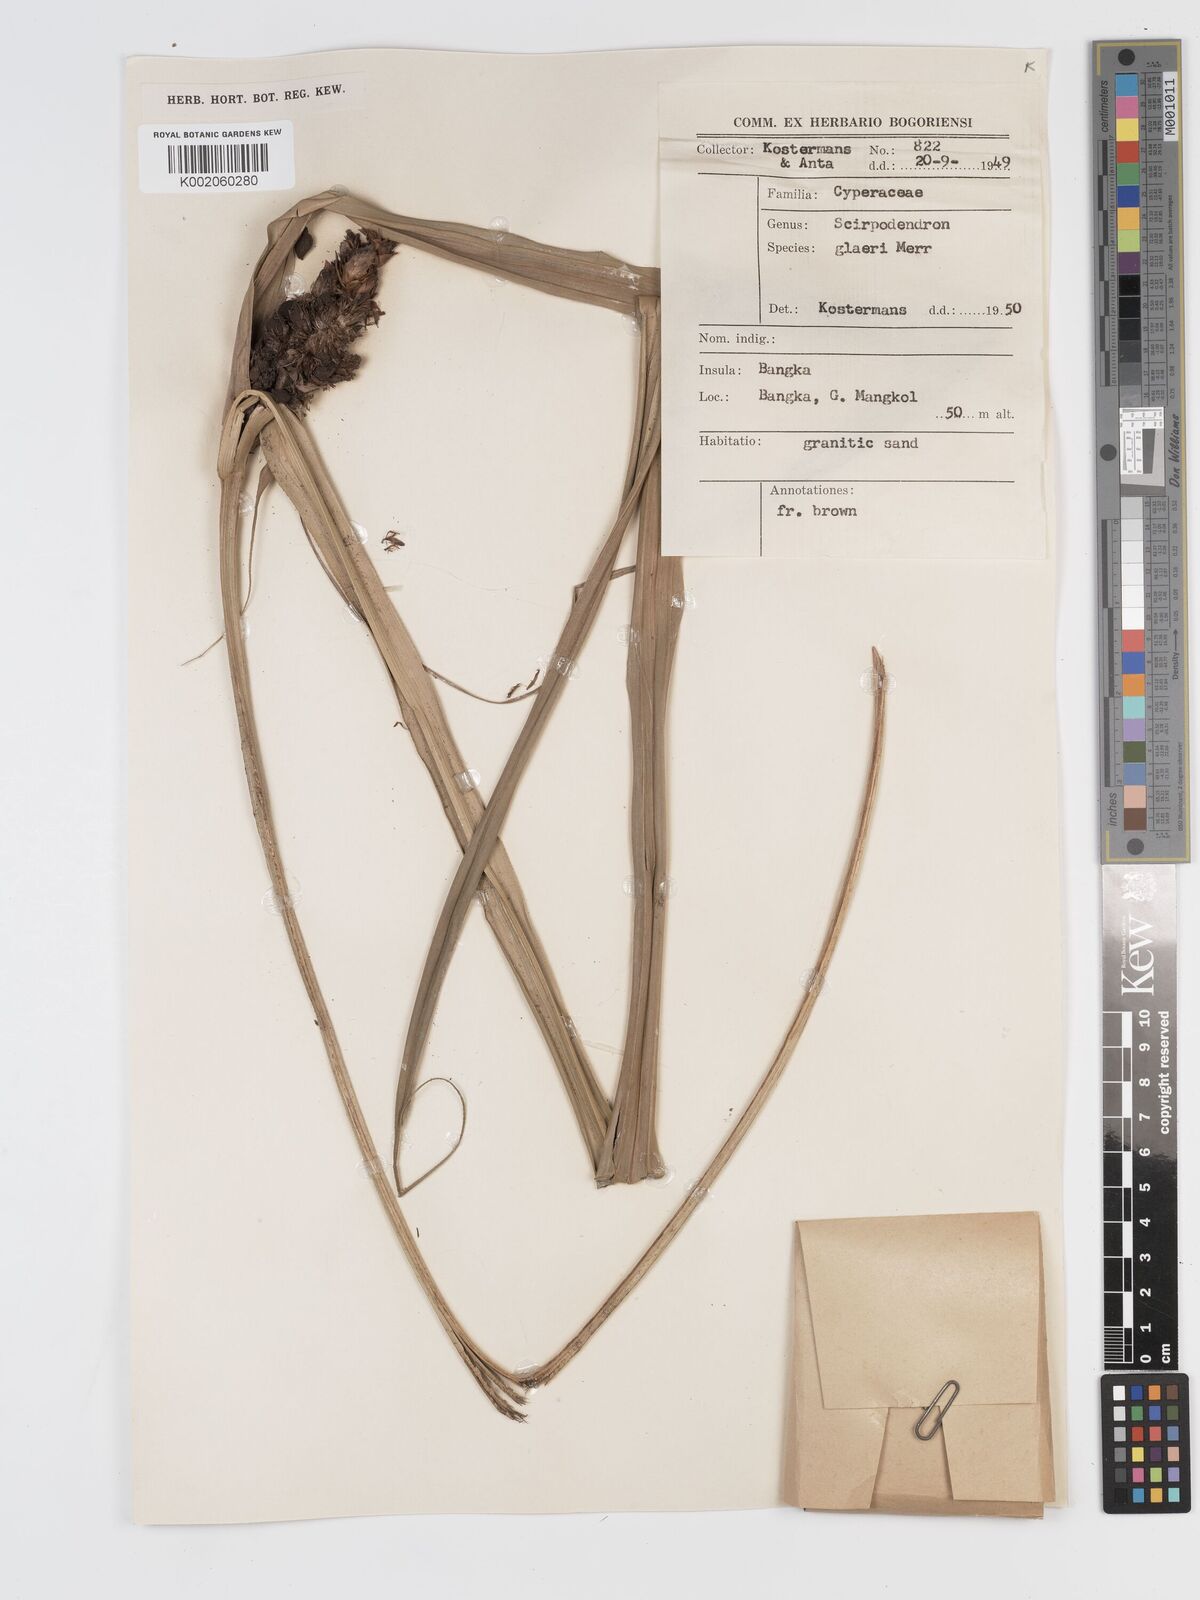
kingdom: Plantae
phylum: Tracheophyta
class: Liliopsida
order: Poales
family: Cyperaceae
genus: Scirpodendron
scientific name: Scirpodendron ghaeri
